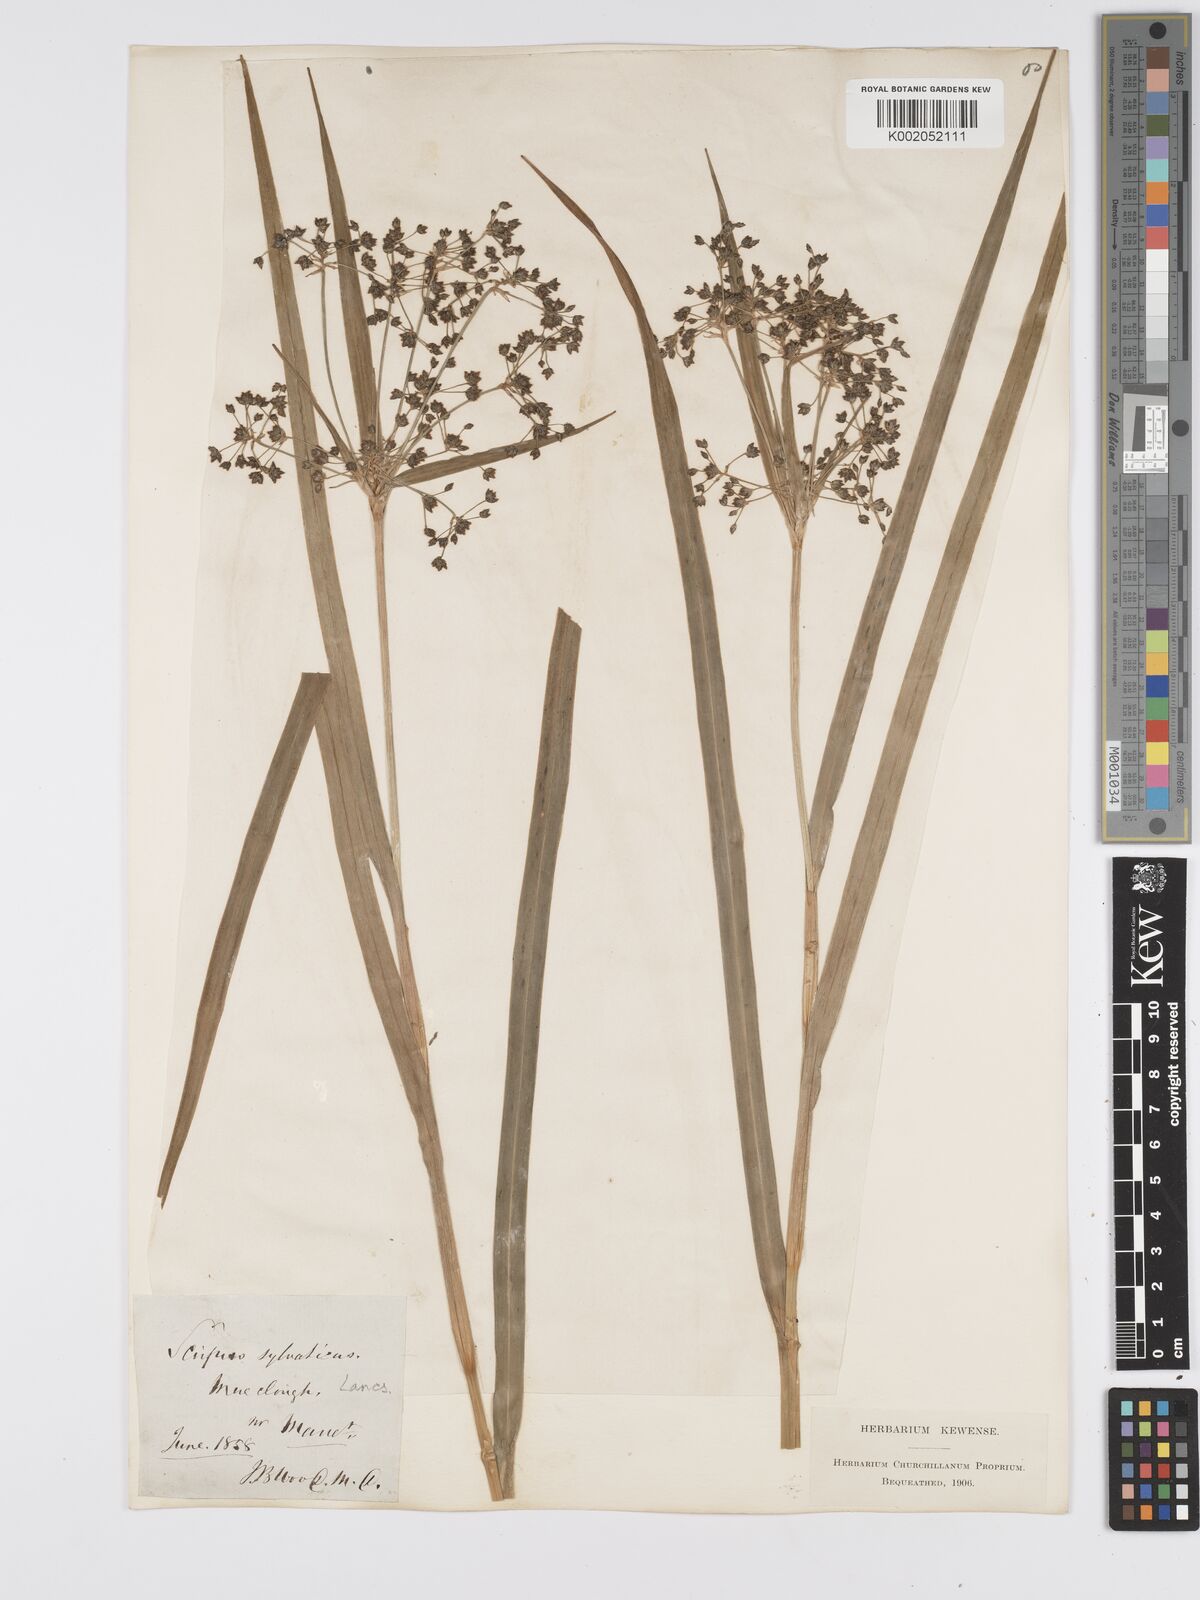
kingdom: Plantae
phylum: Tracheophyta
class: Liliopsida
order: Poales
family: Cyperaceae
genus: Scirpus
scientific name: Scirpus sylvaticus
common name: Wood club-rush
